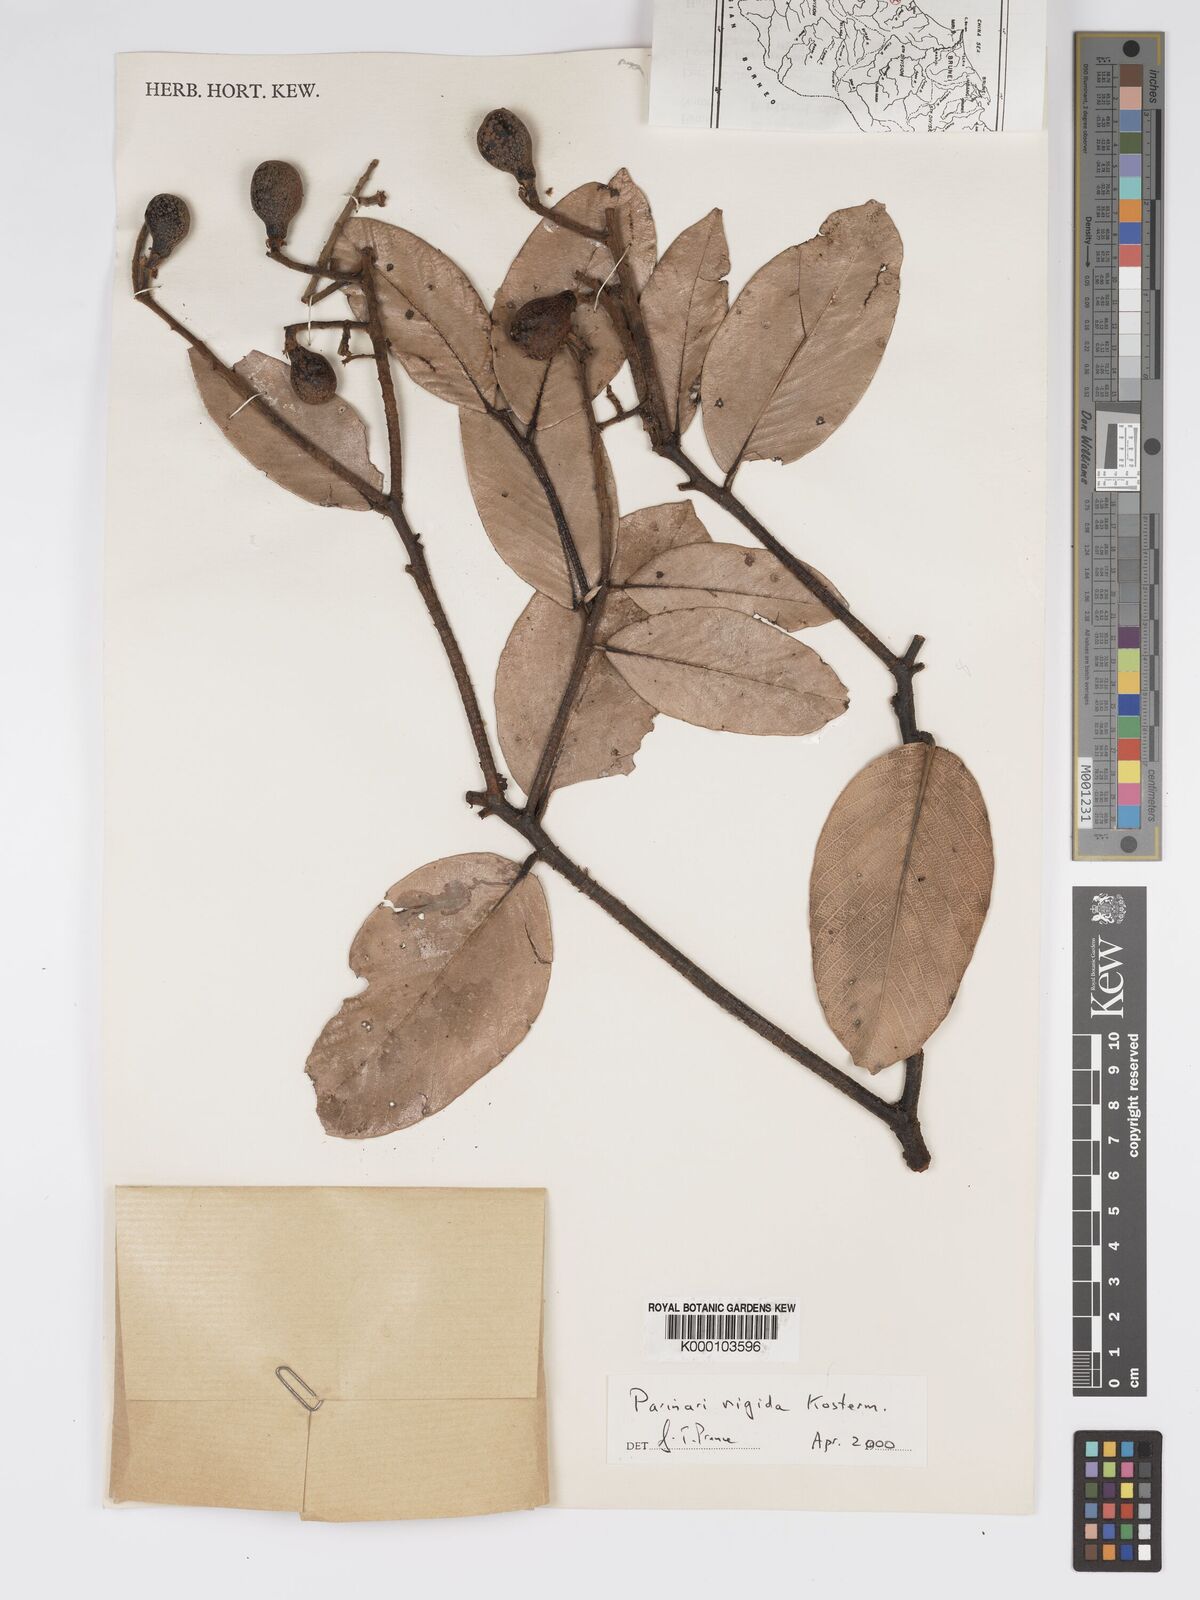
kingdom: Plantae
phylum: Tracheophyta
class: Magnoliopsida
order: Malpighiales
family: Chrysobalanaceae
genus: Parinari
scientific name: Parinari rigida
